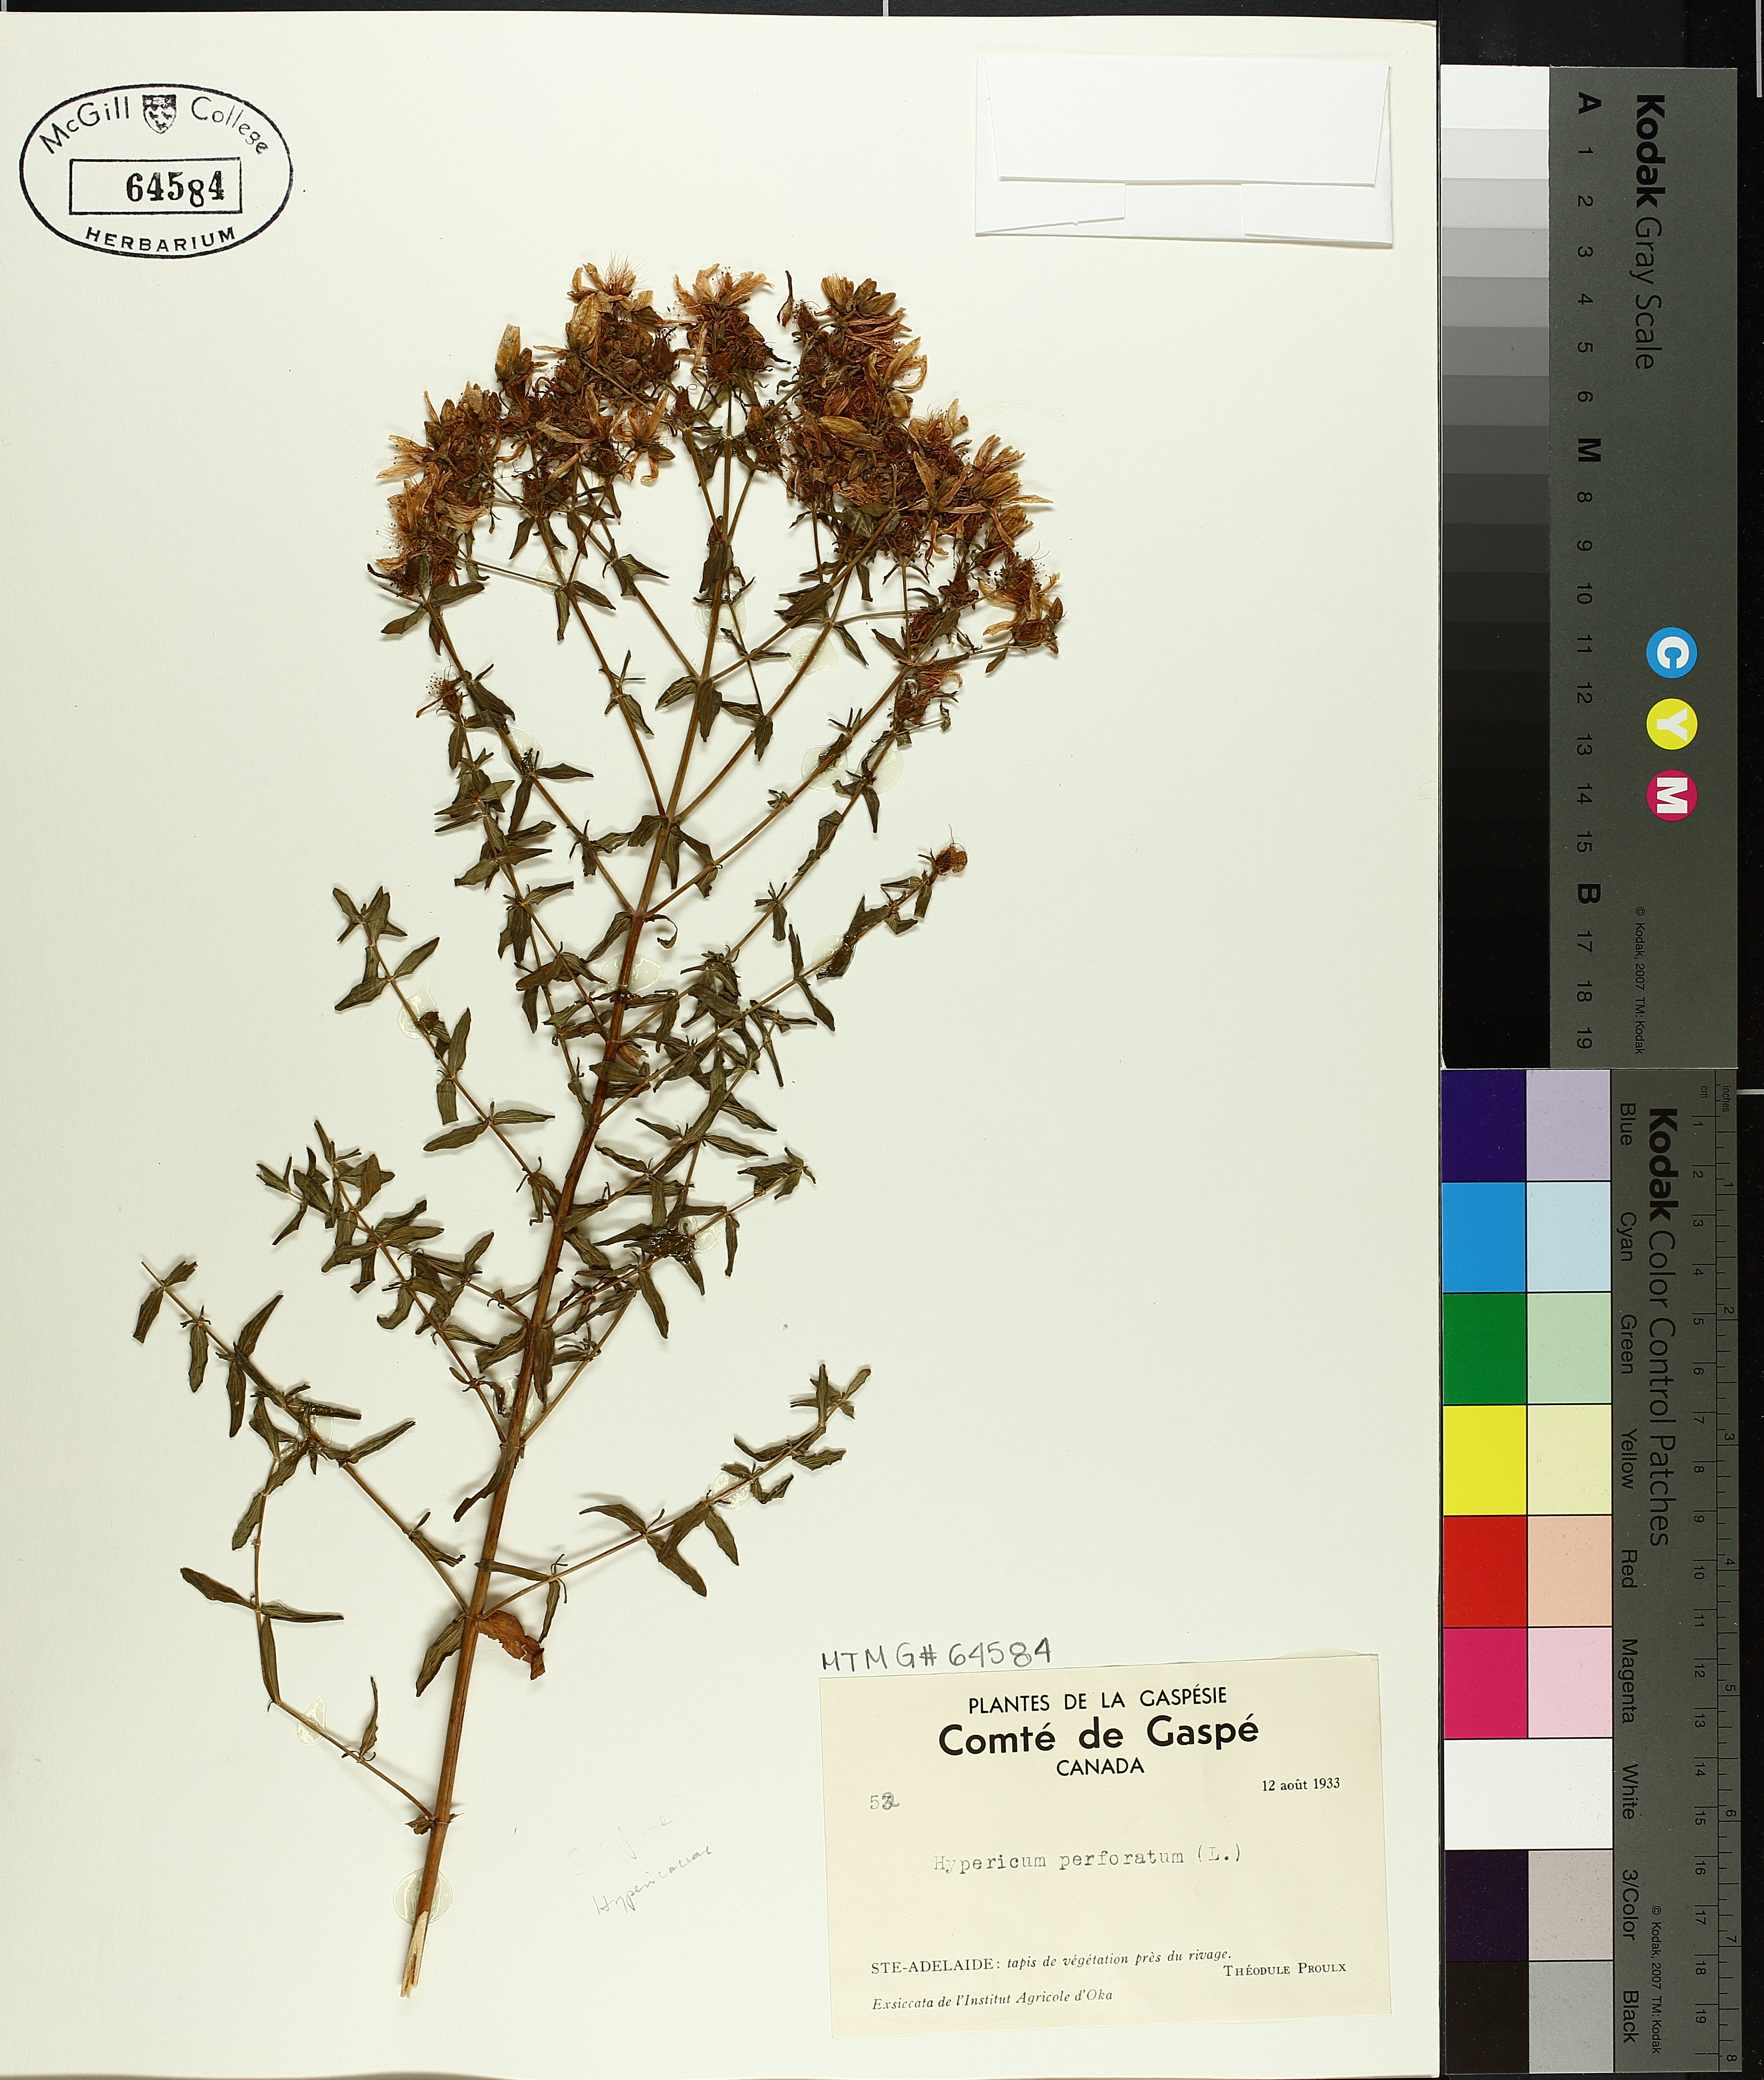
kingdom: Plantae
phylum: Tracheophyta
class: Magnoliopsida
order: Malpighiales
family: Hypericaceae
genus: Hypericum
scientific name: Hypericum perforatum
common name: Common st. johnswort
